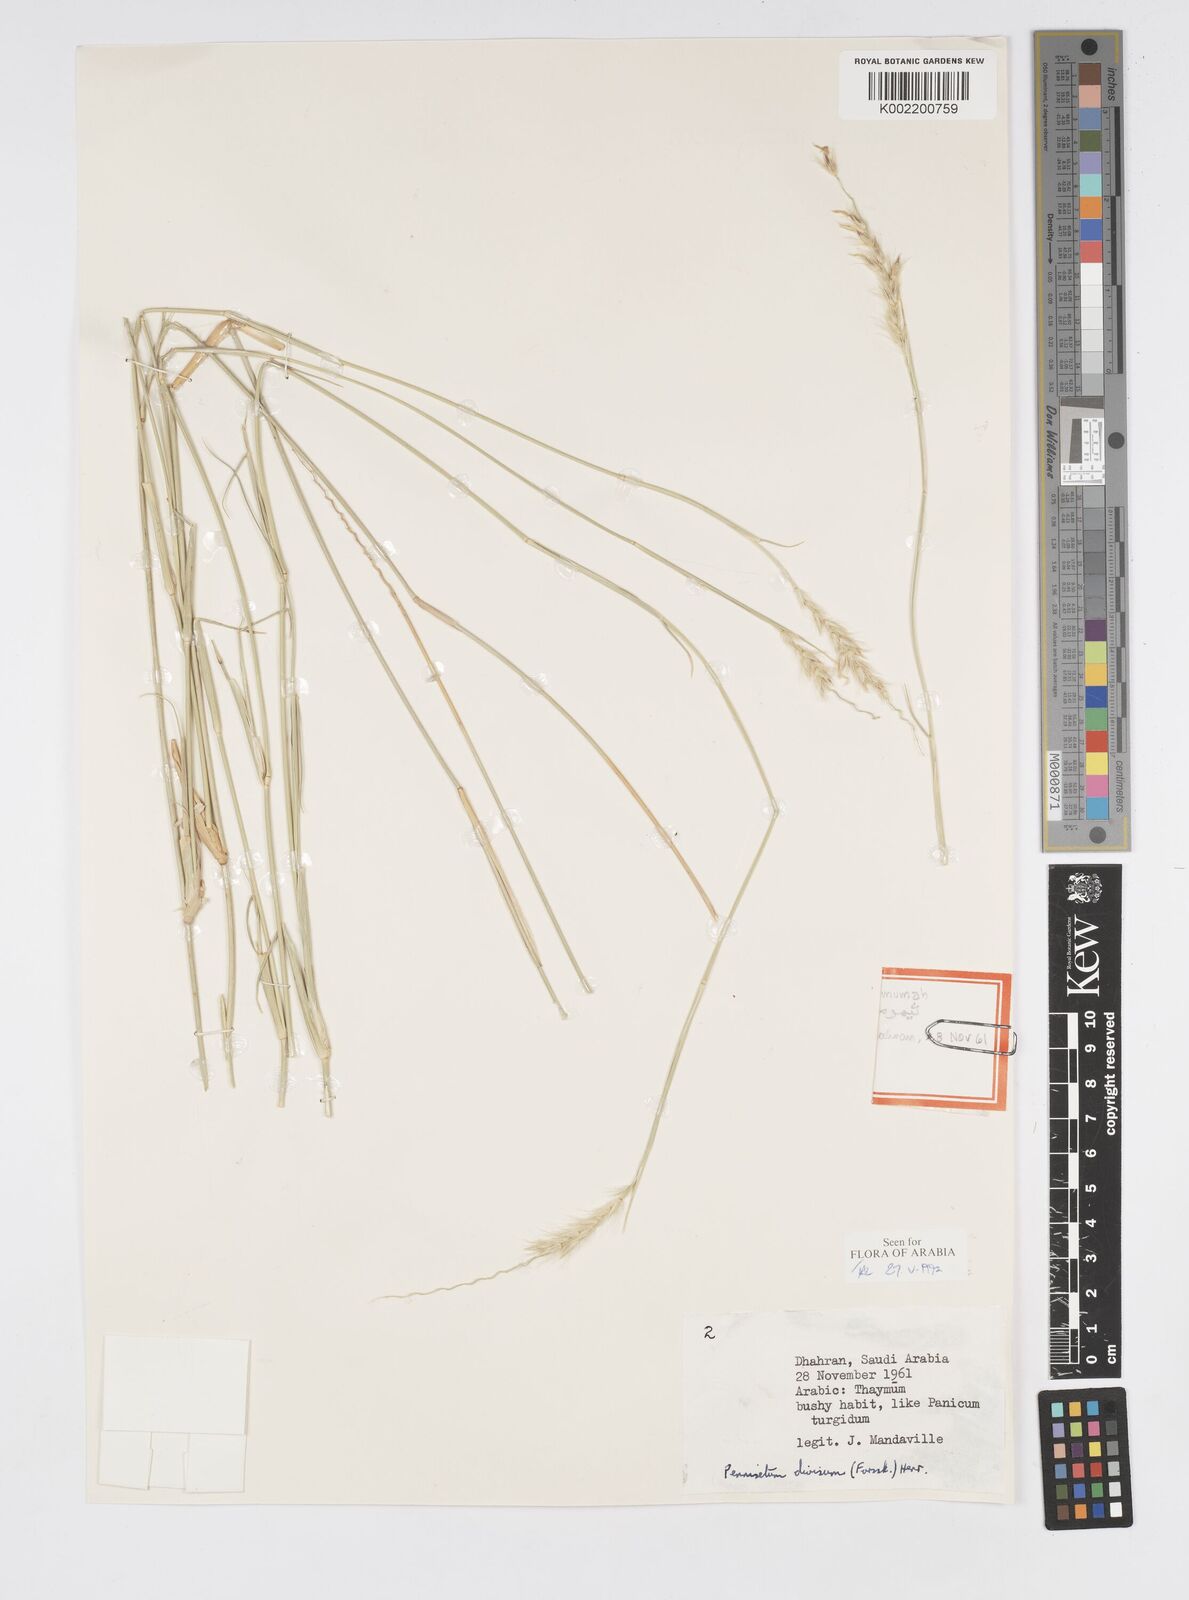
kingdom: Plantae
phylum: Tracheophyta
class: Liliopsida
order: Poales
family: Poaceae
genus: Cenchrus
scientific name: Cenchrus divisus
